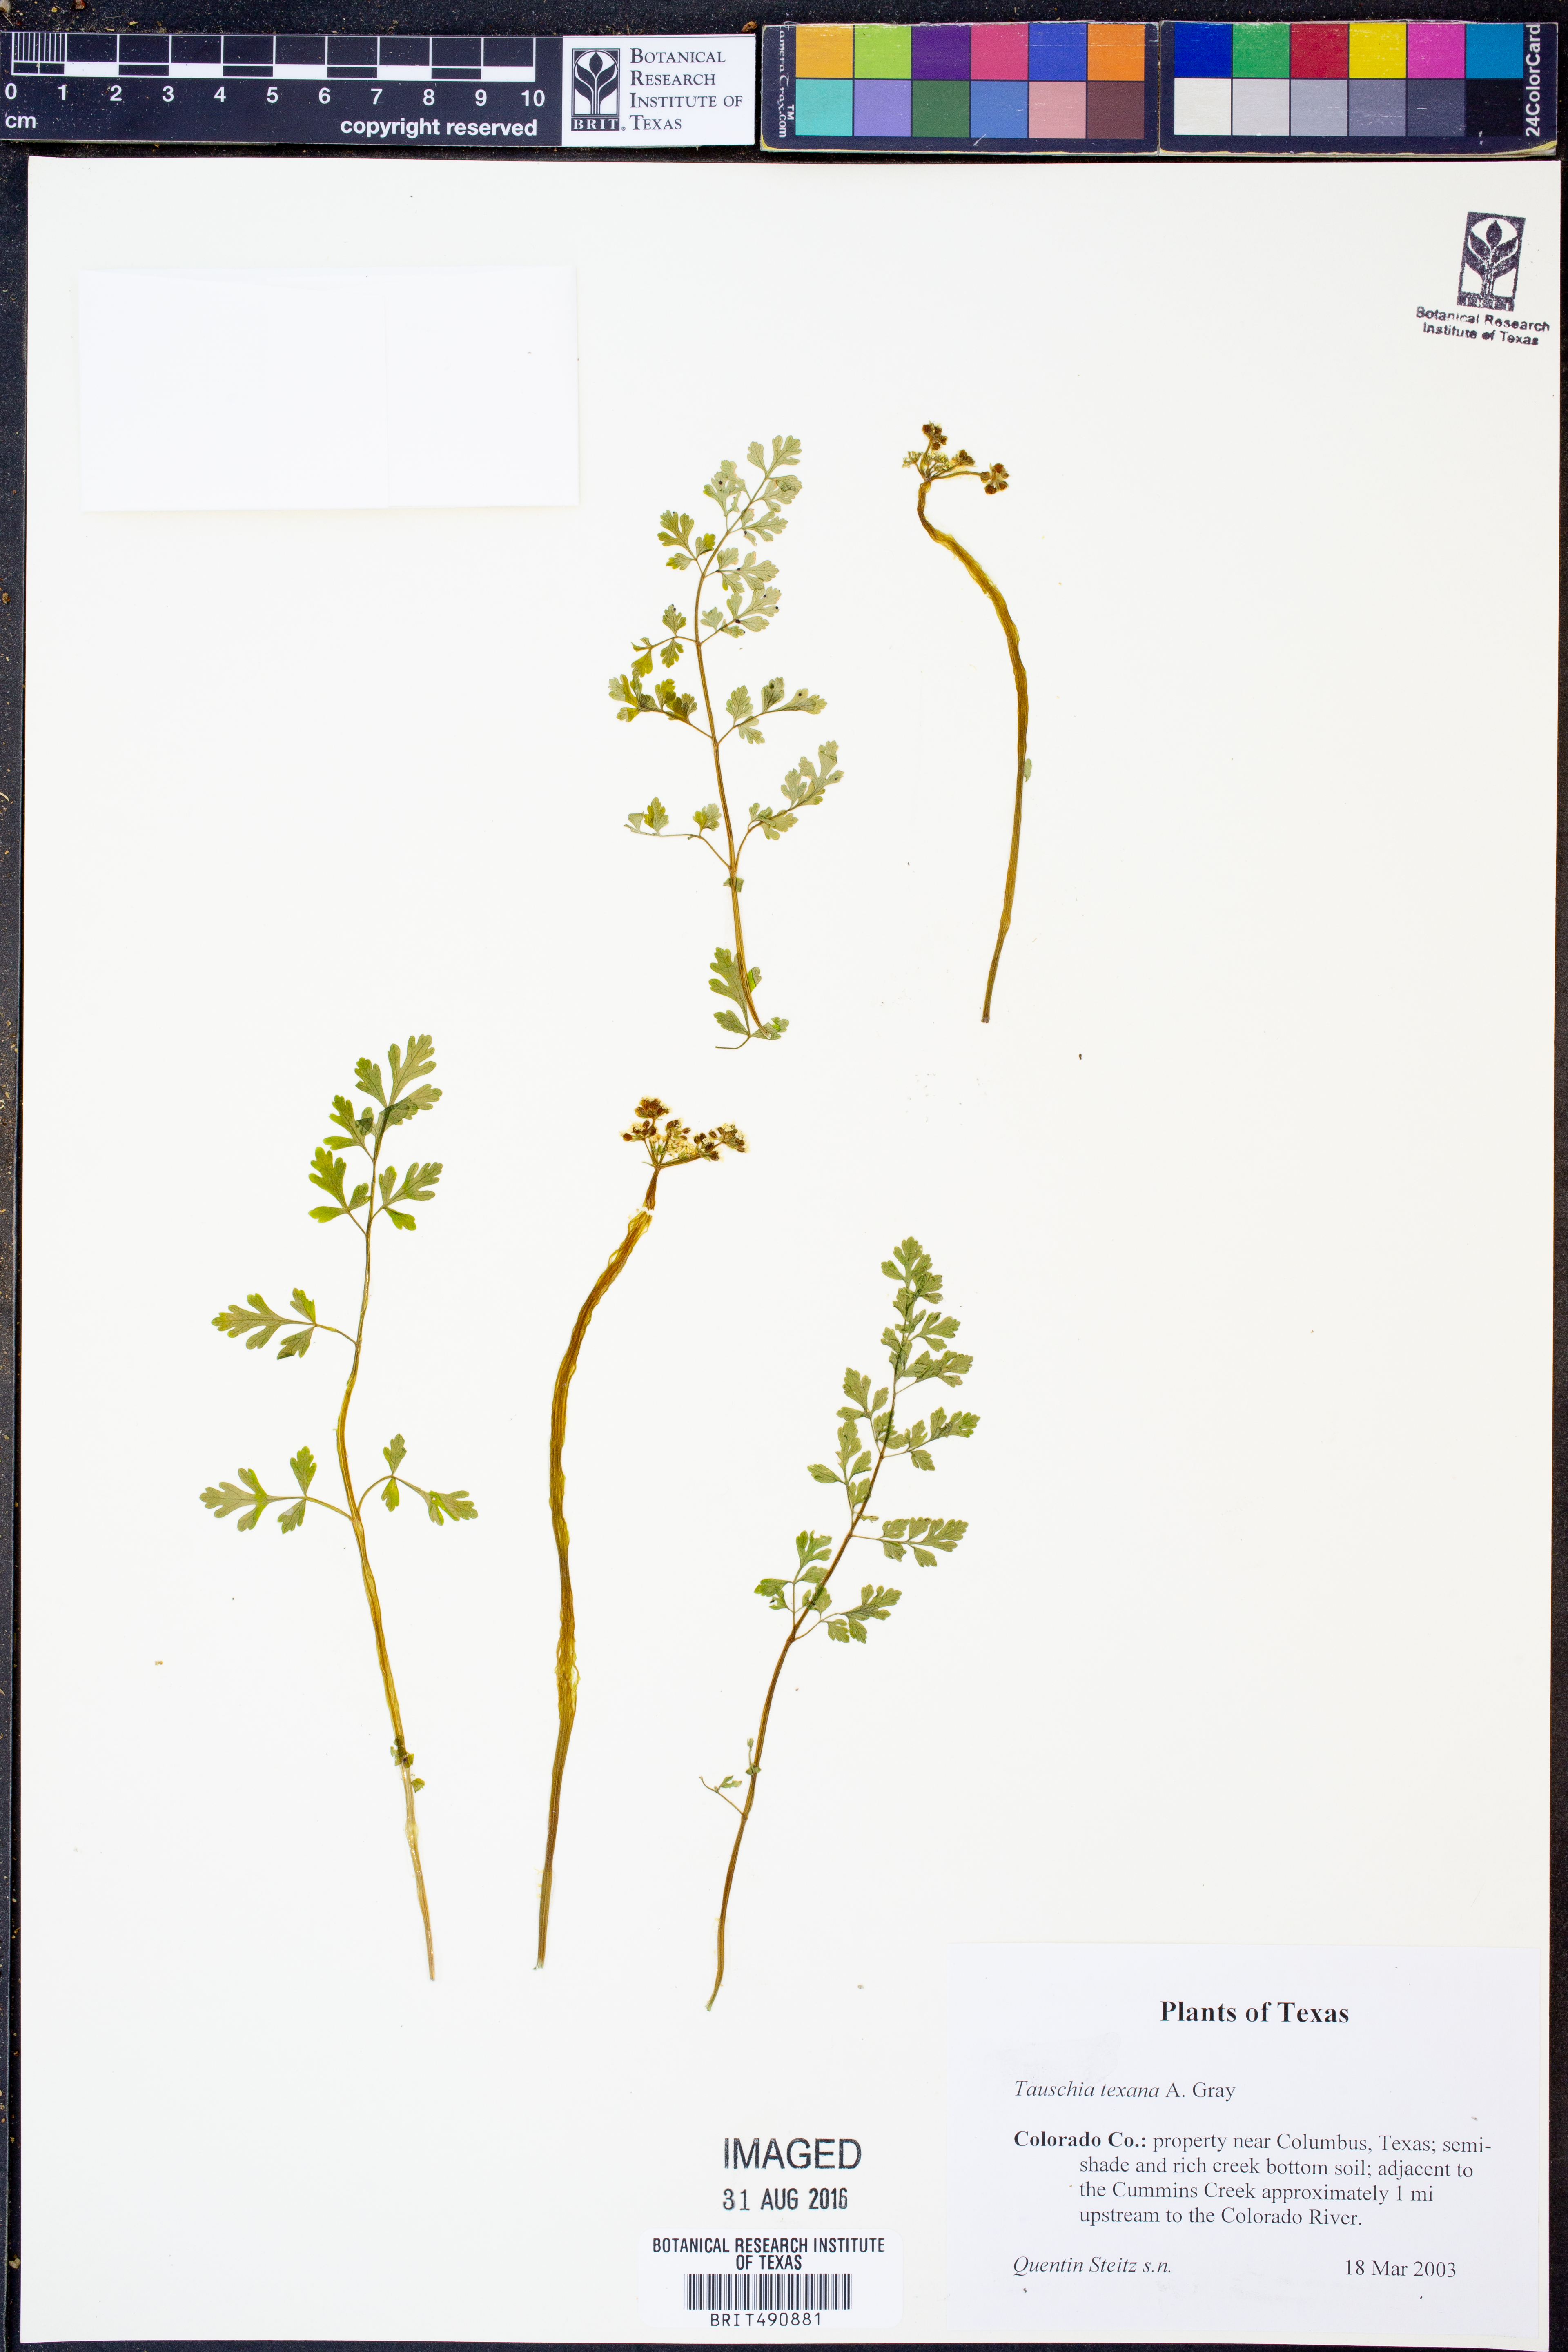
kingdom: Plantae
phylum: Tracheophyta
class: Magnoliopsida
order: Apiales
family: Apiaceae
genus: Tauschia
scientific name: Tauschia texana
